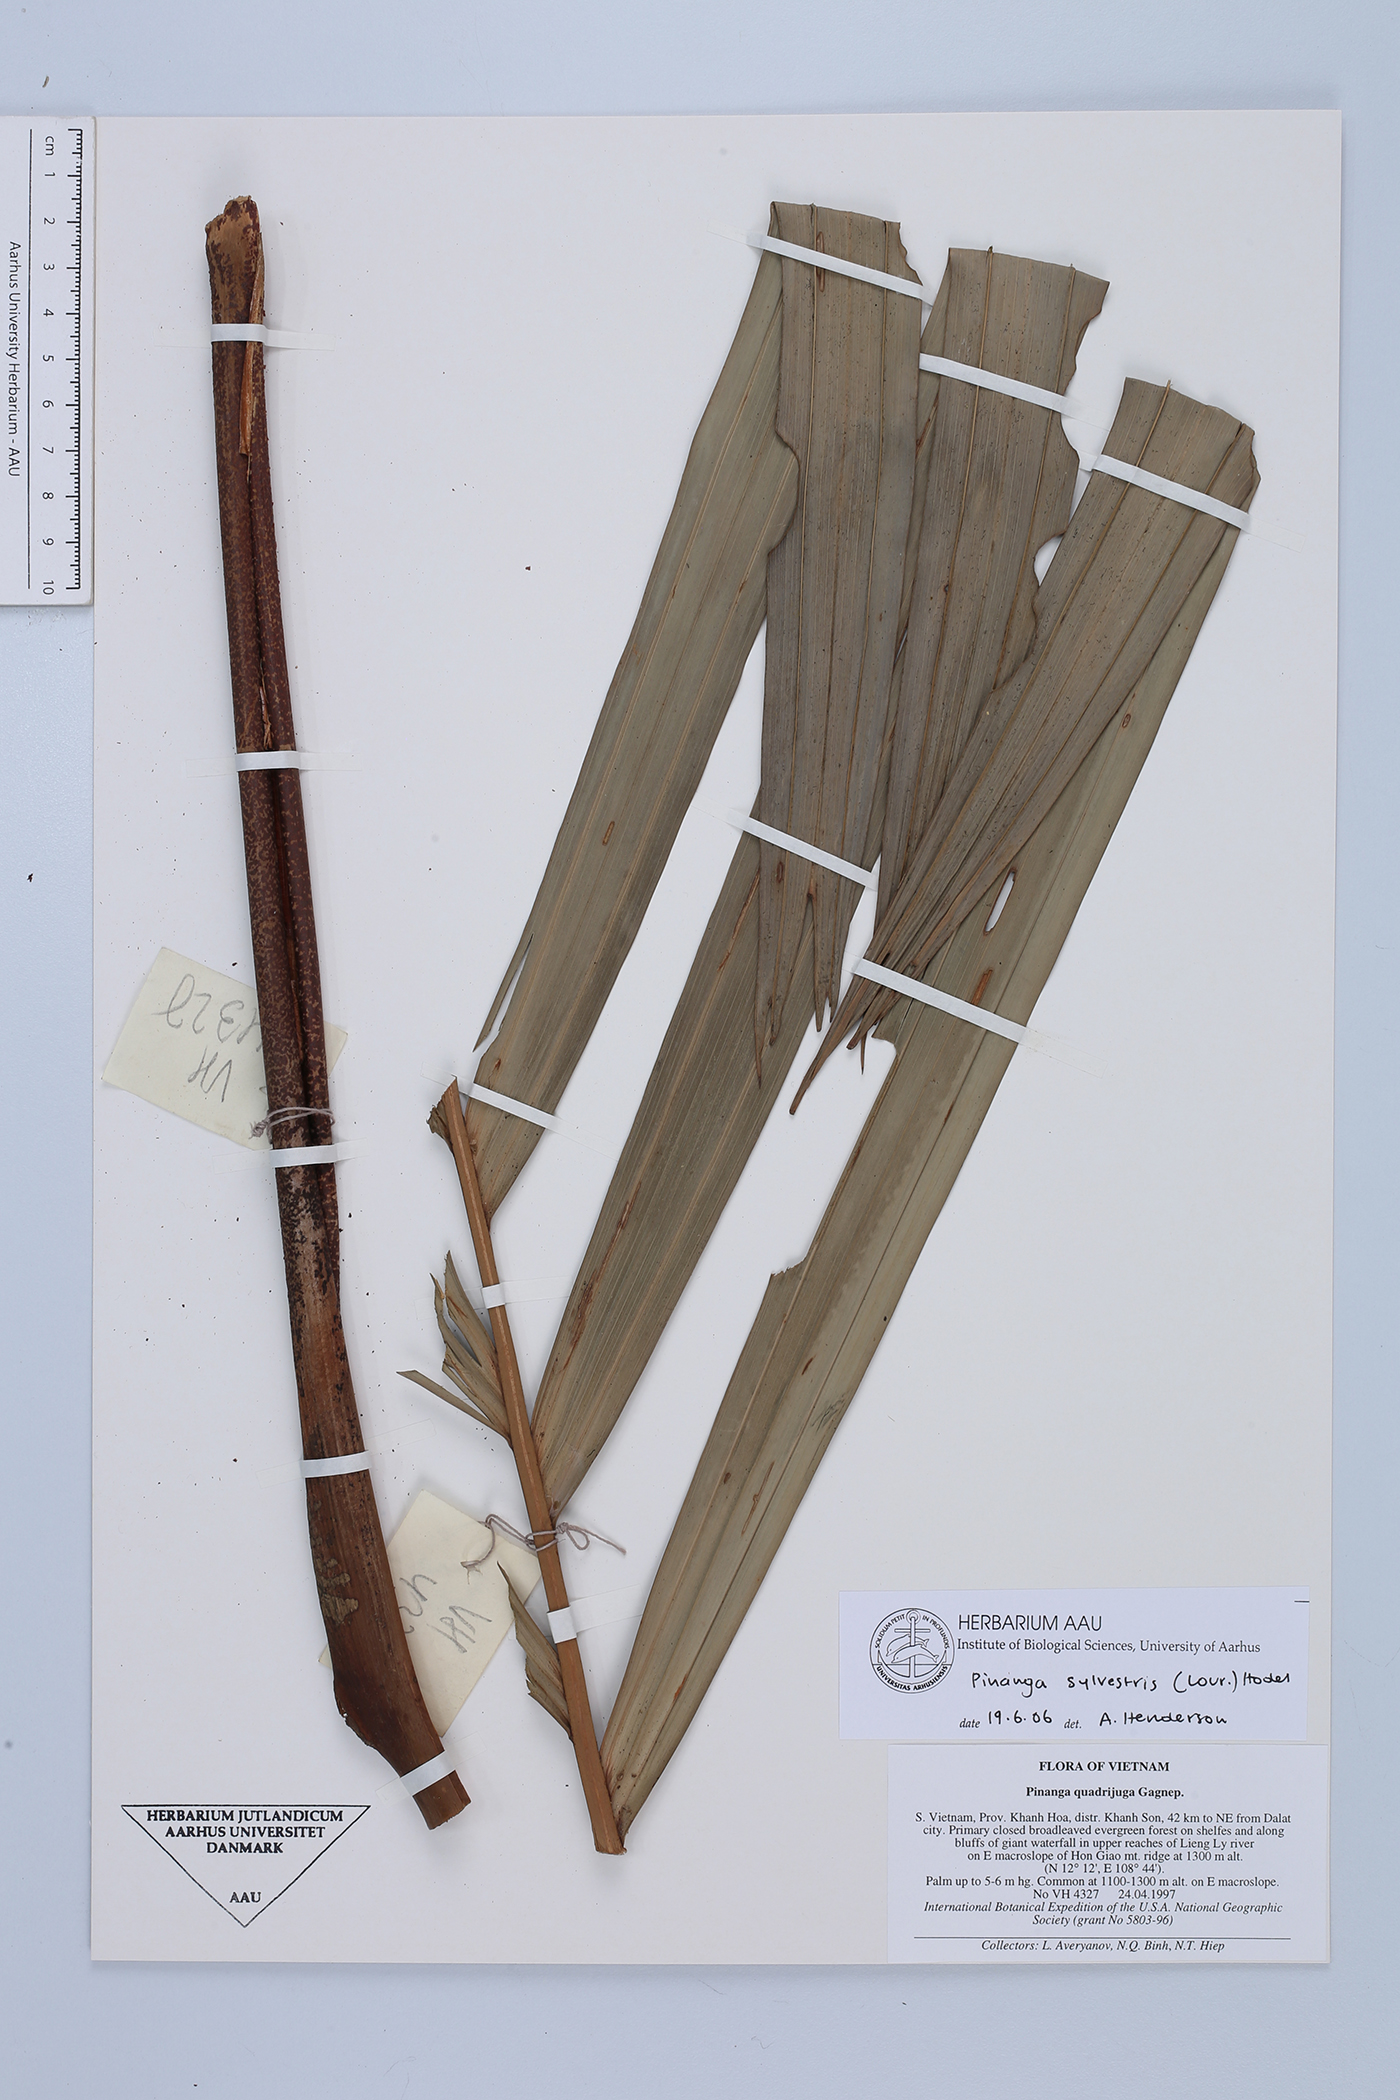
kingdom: Plantae
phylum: Tracheophyta
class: Liliopsida
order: Arecales
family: Arecaceae
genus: Pinanga
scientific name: Pinanga sylvestris
